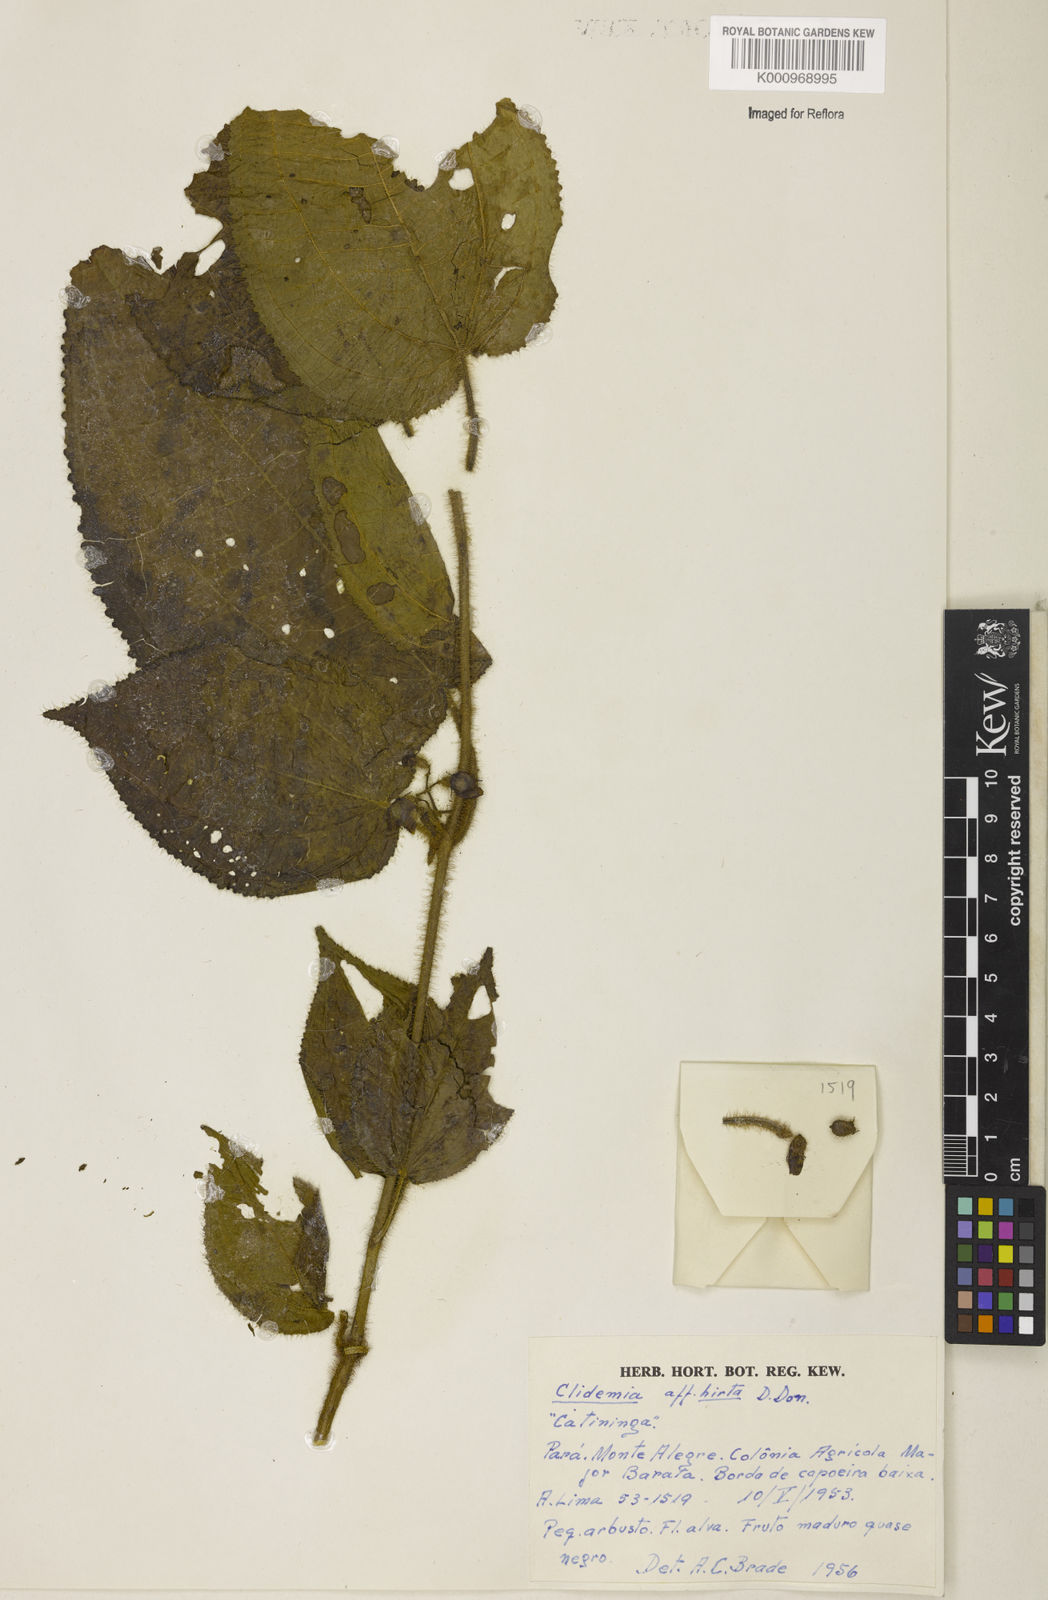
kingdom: Plantae
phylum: Tracheophyta
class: Magnoliopsida
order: Myrtales
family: Melastomataceae
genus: Miconia
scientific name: Miconia crenata
